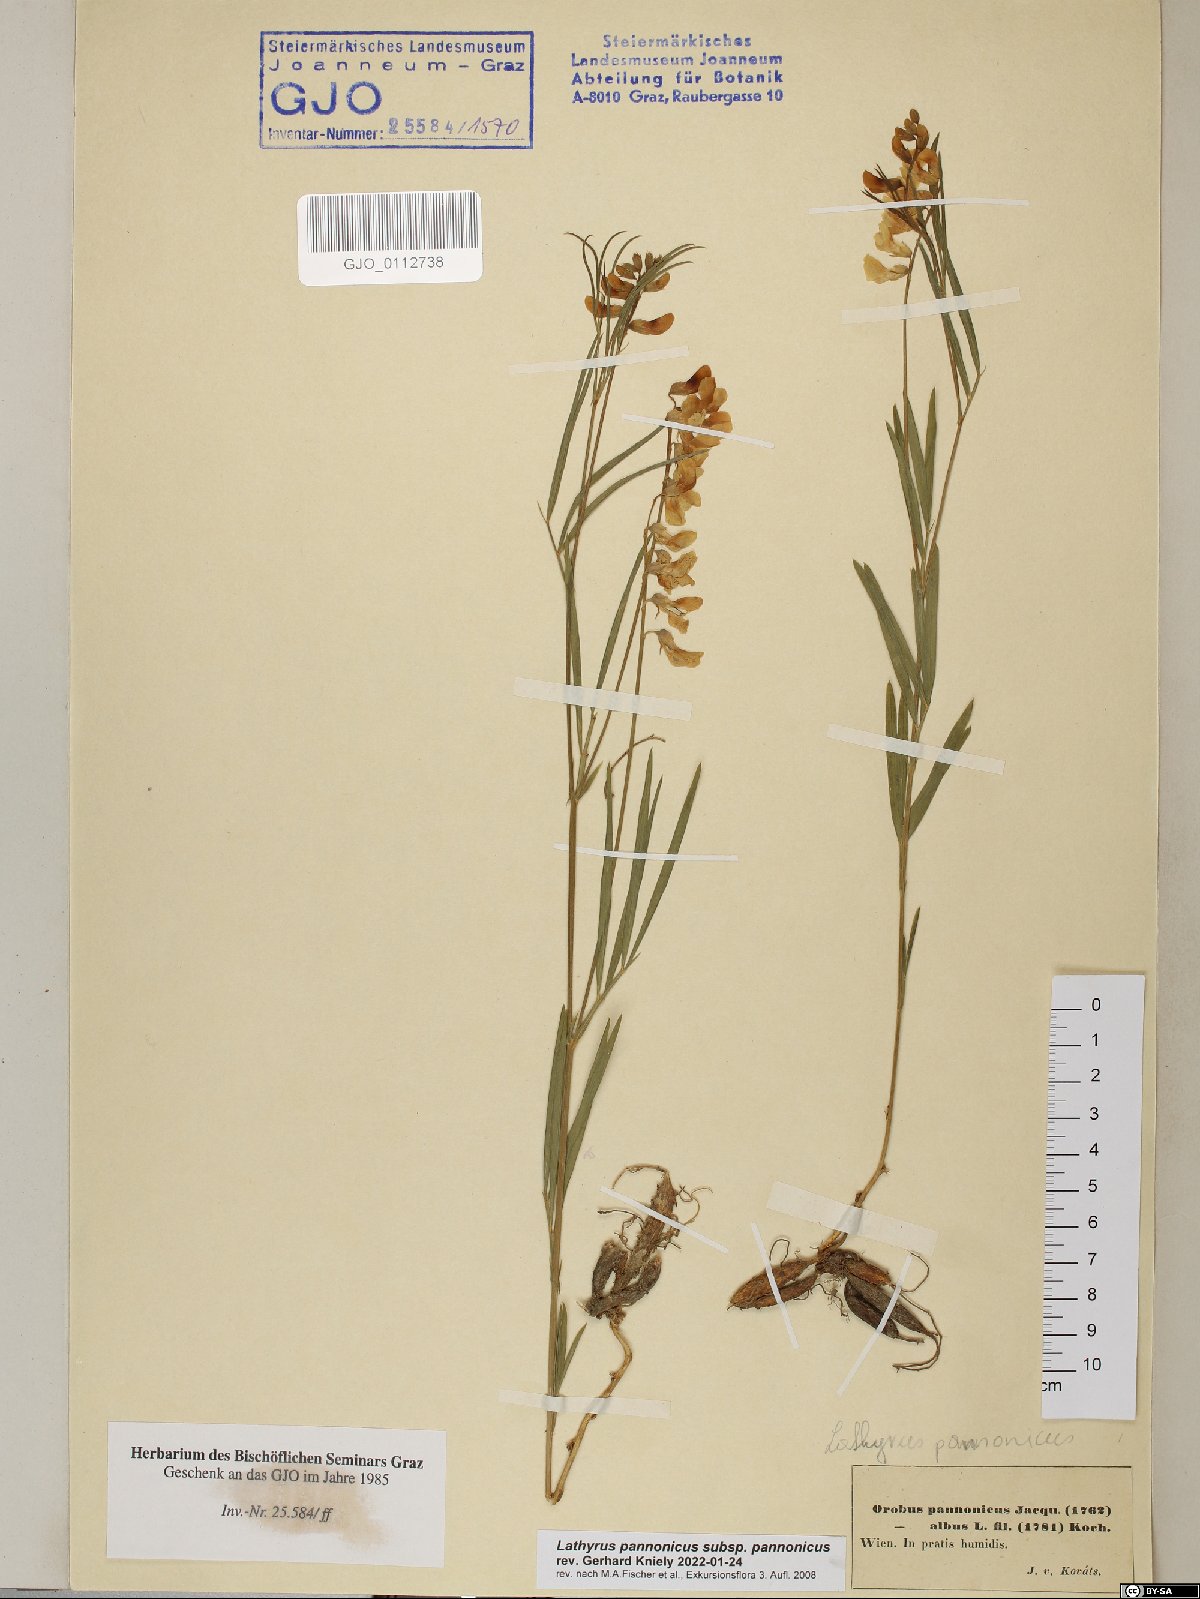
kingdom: Plantae
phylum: Tracheophyta
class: Magnoliopsida
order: Fabales
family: Fabaceae
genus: Lathyrus
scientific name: Lathyrus pannonicus
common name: Pea
